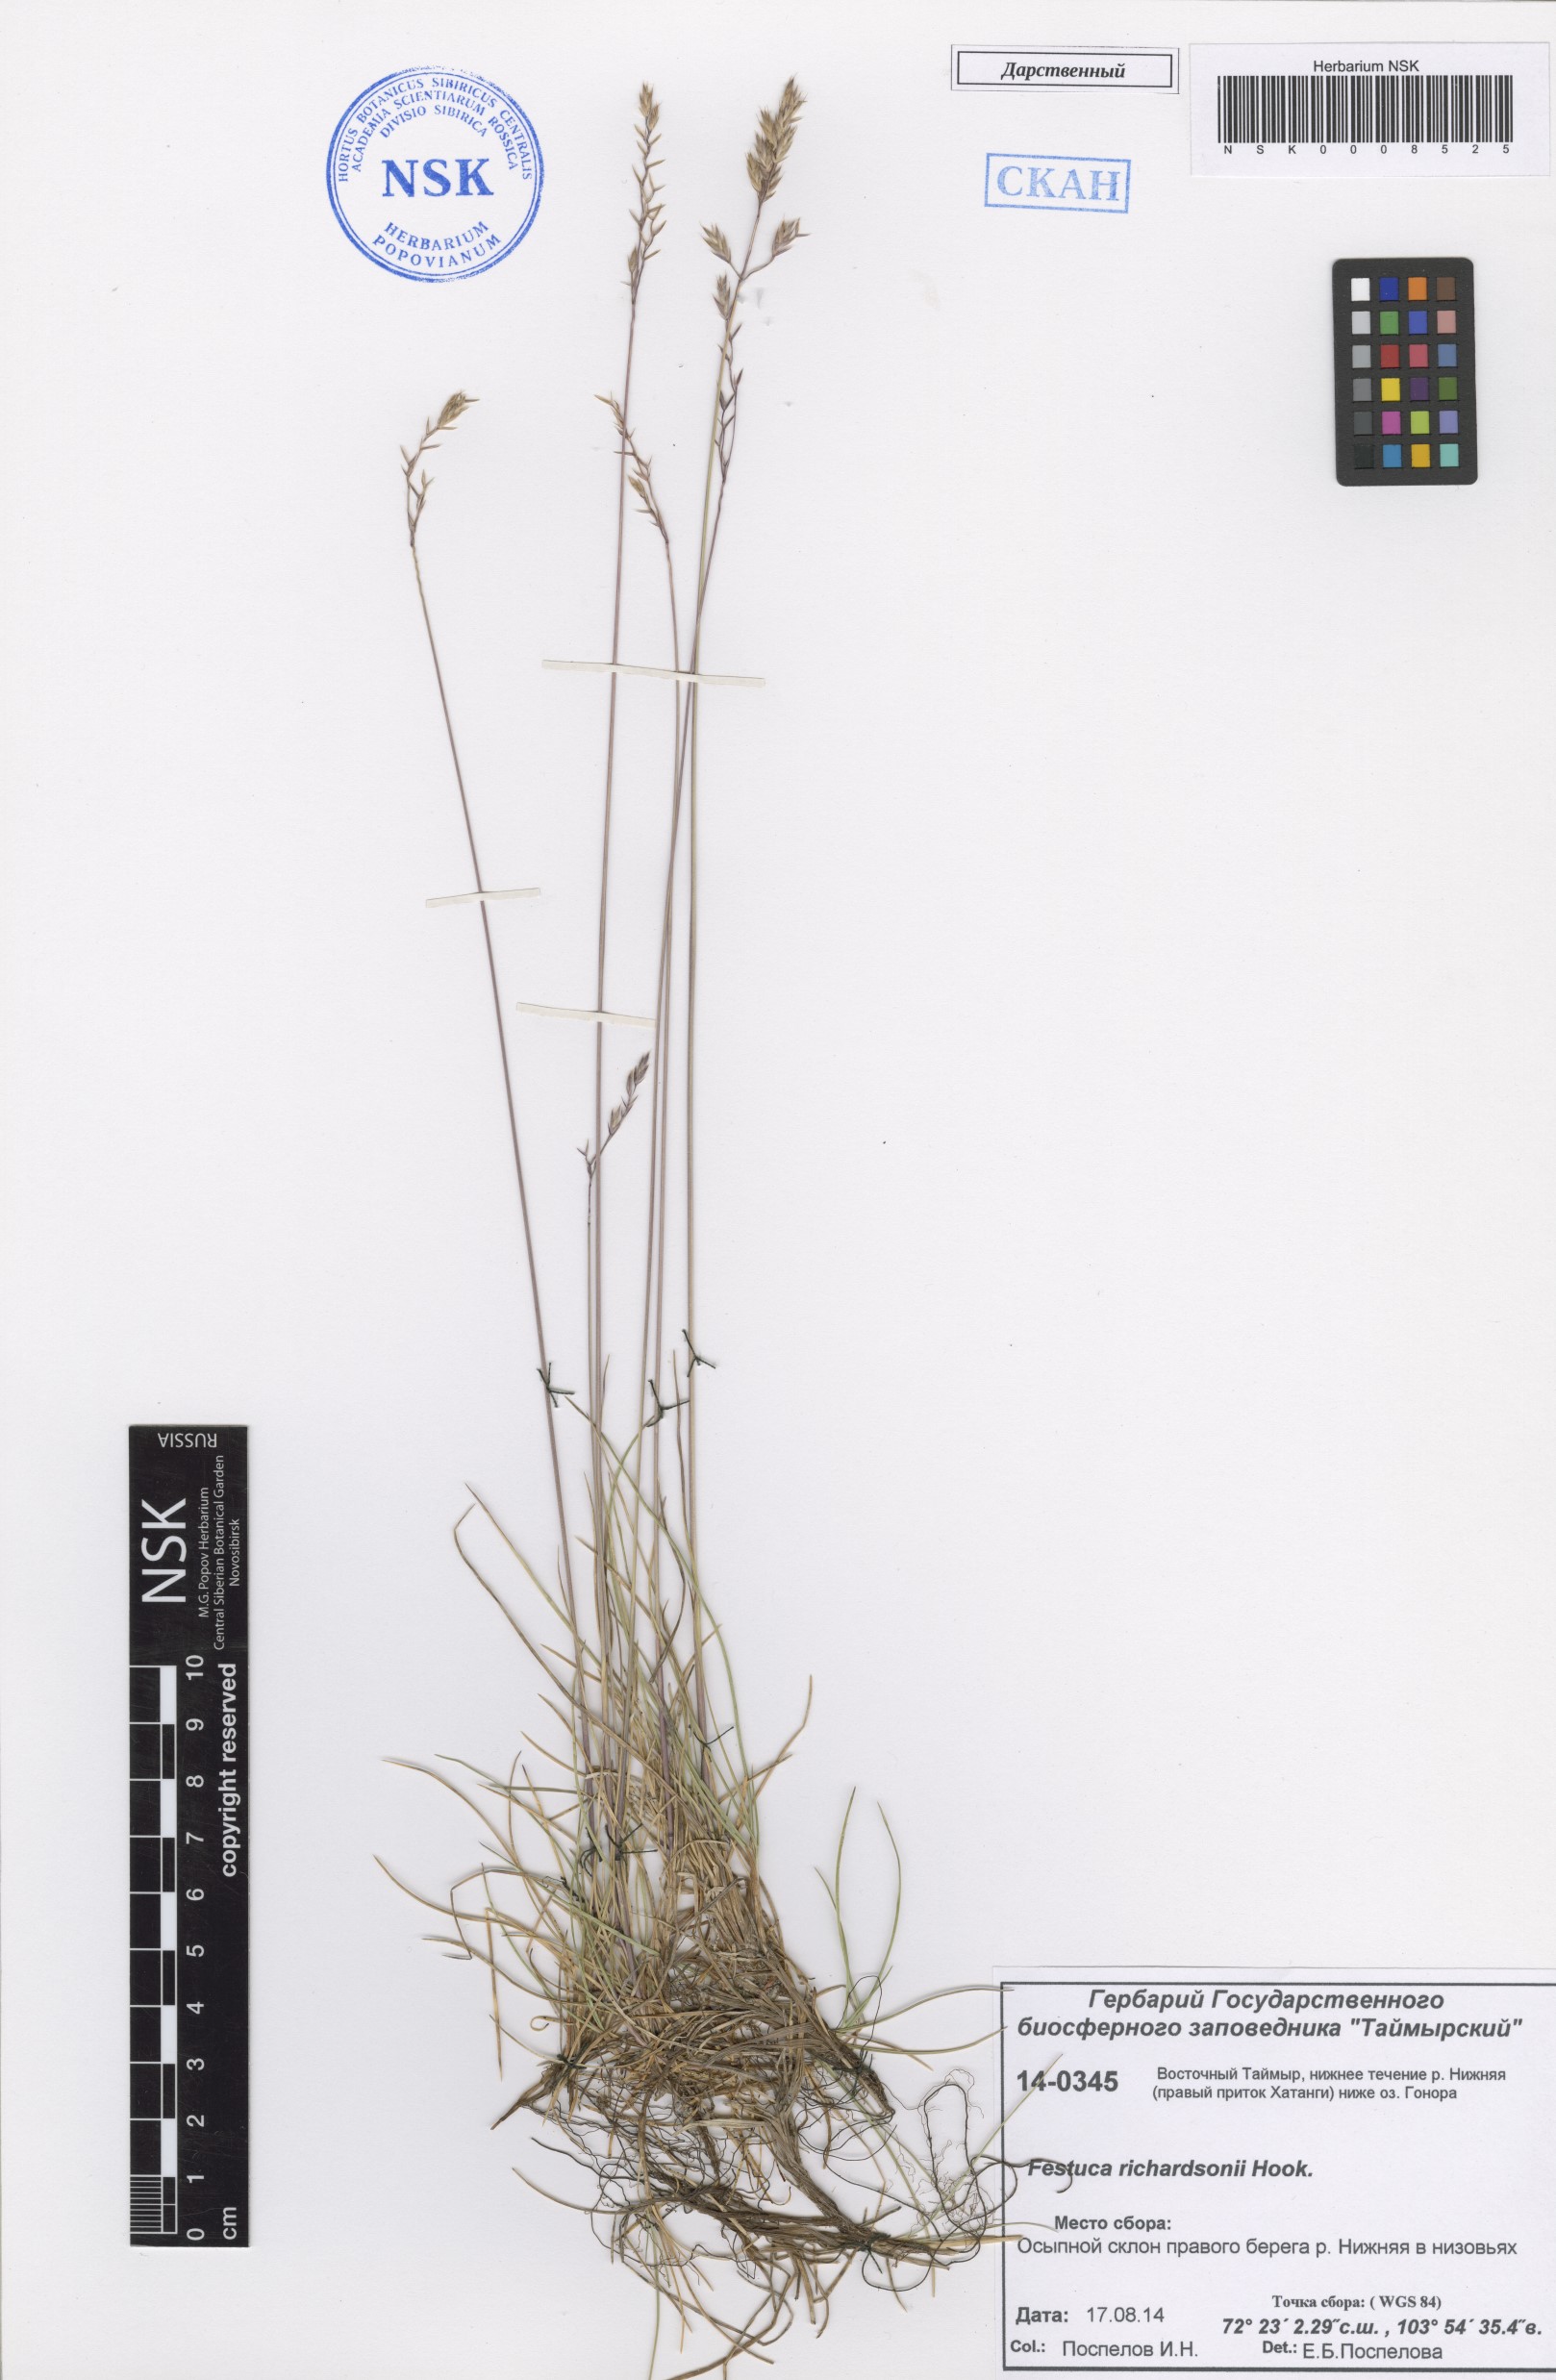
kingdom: Plantae
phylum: Tracheophyta
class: Liliopsida
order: Poales
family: Poaceae
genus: Festuca
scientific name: Festuca richardsonii
